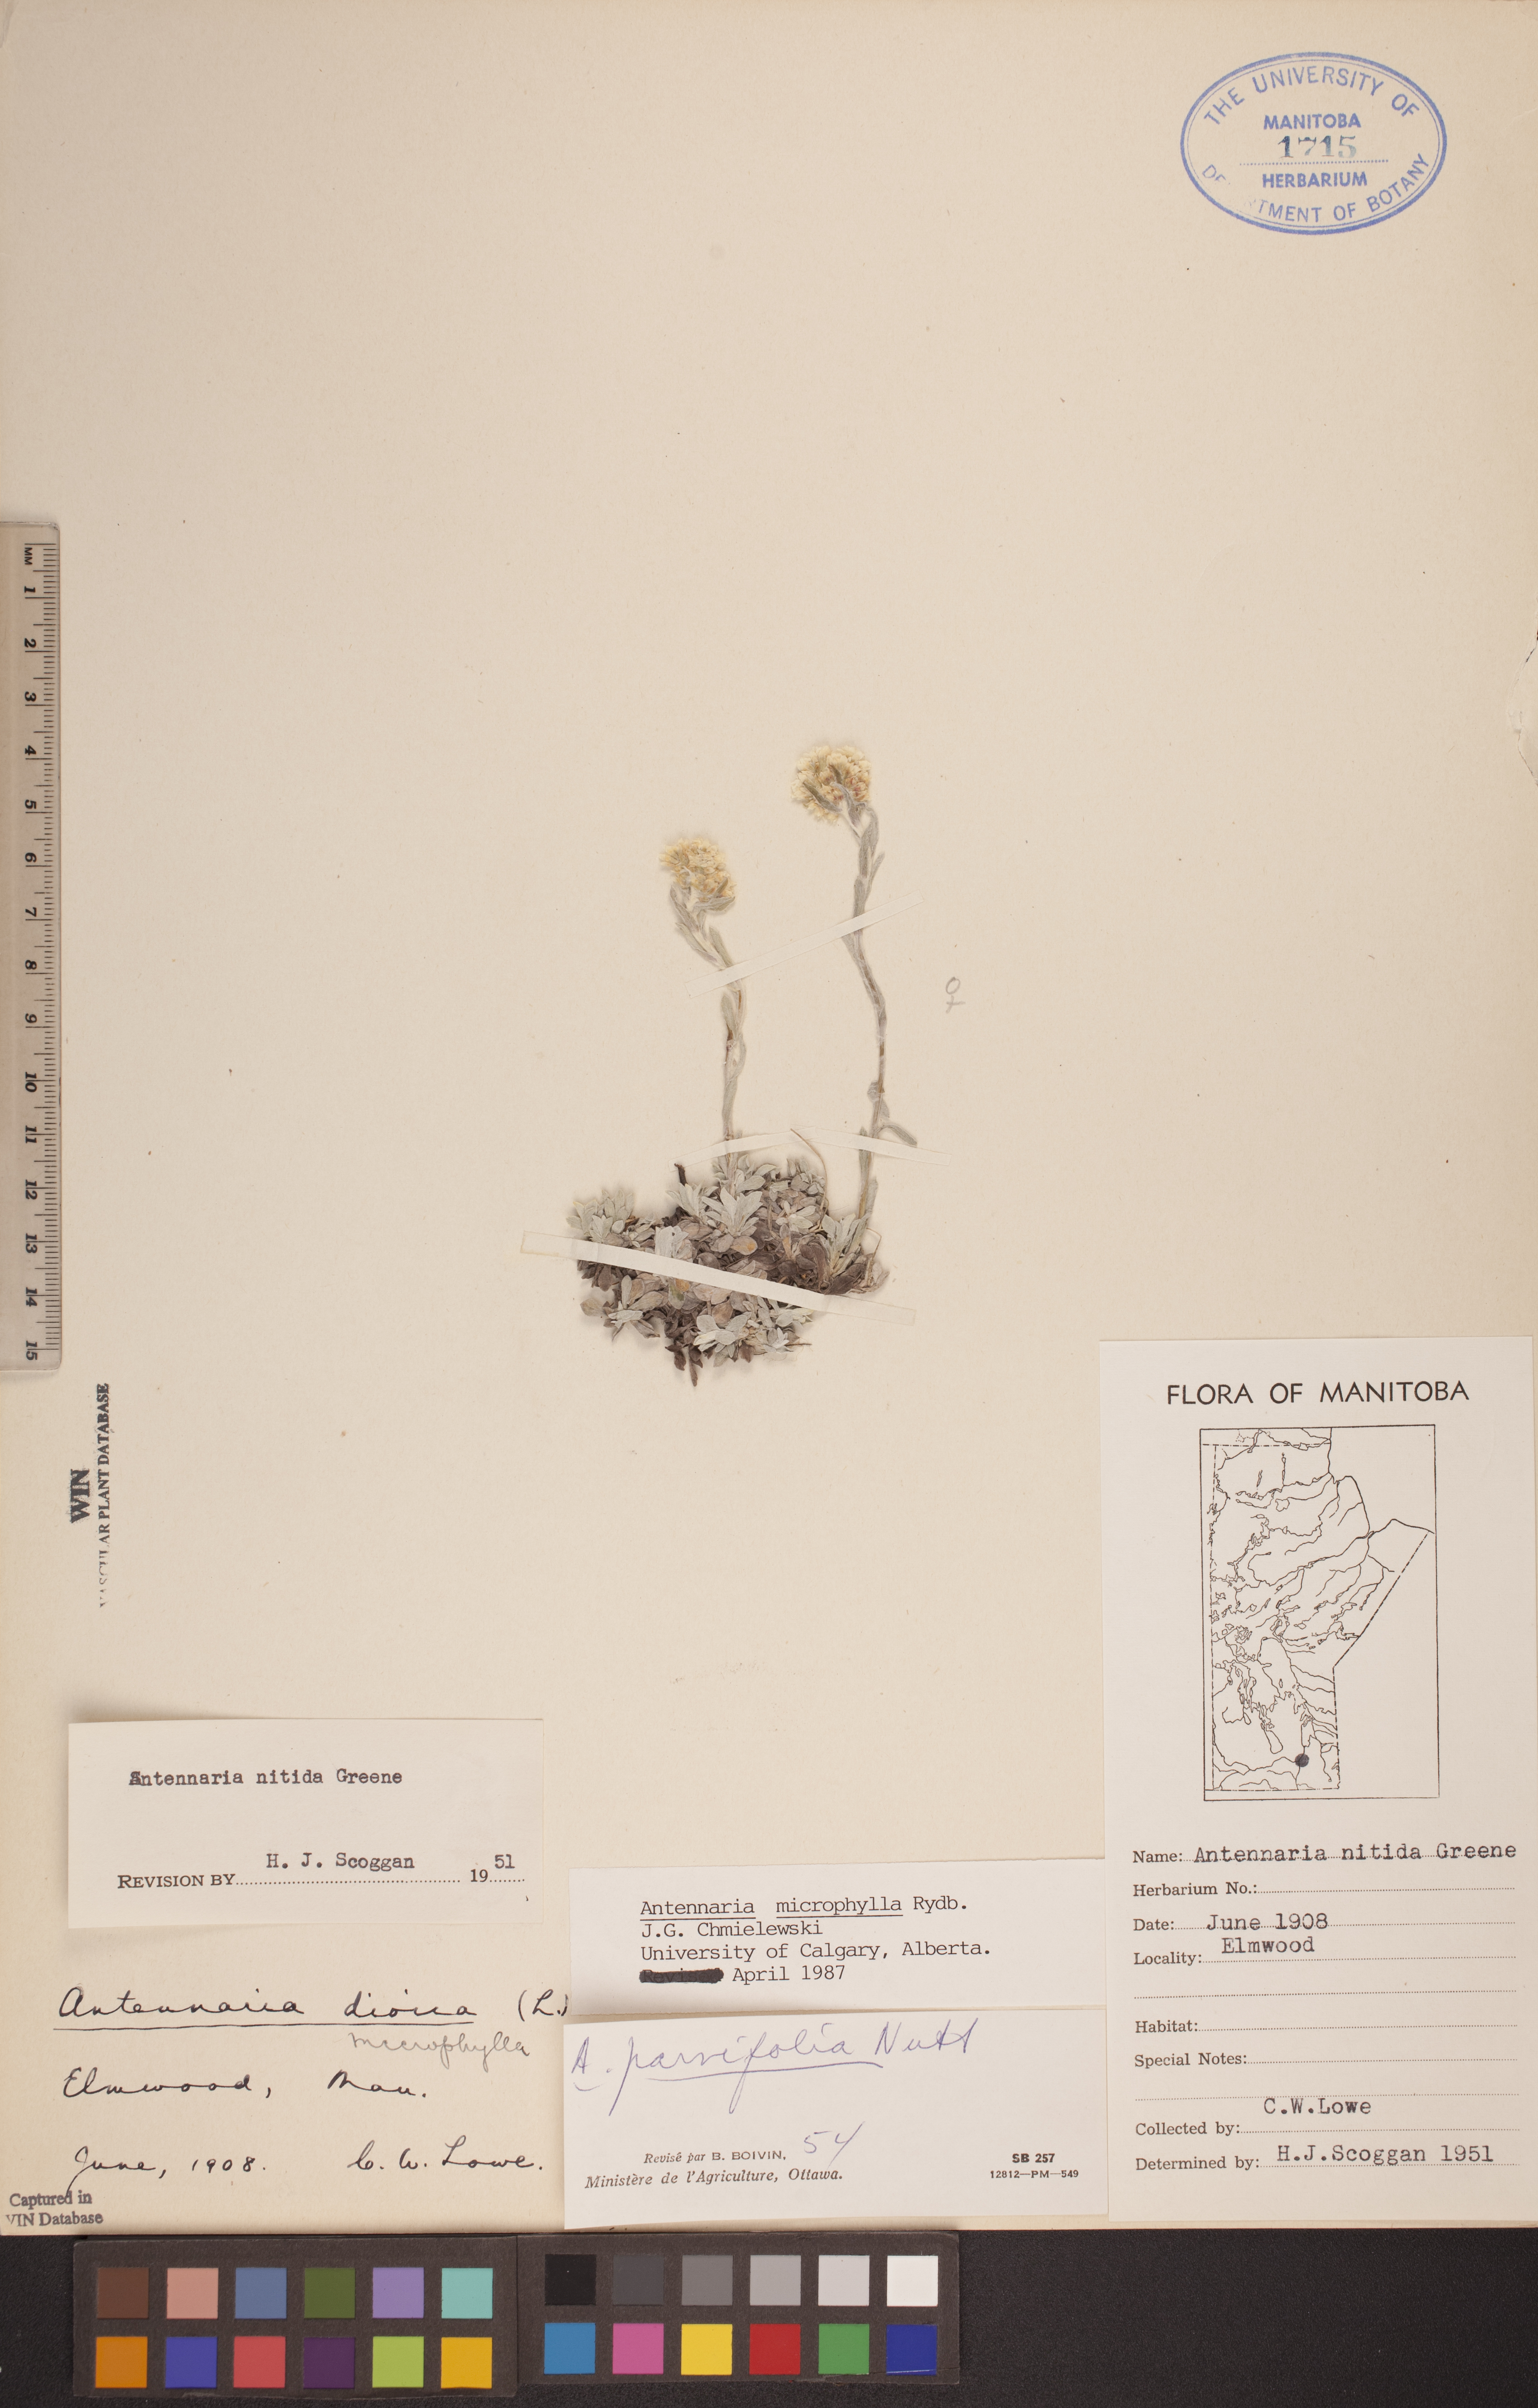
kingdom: Plantae
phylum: Tracheophyta
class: Magnoliopsida
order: Asterales
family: Asteraceae
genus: Antennaria
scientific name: Antennaria microphylla
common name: Littleleaf pussytoes
